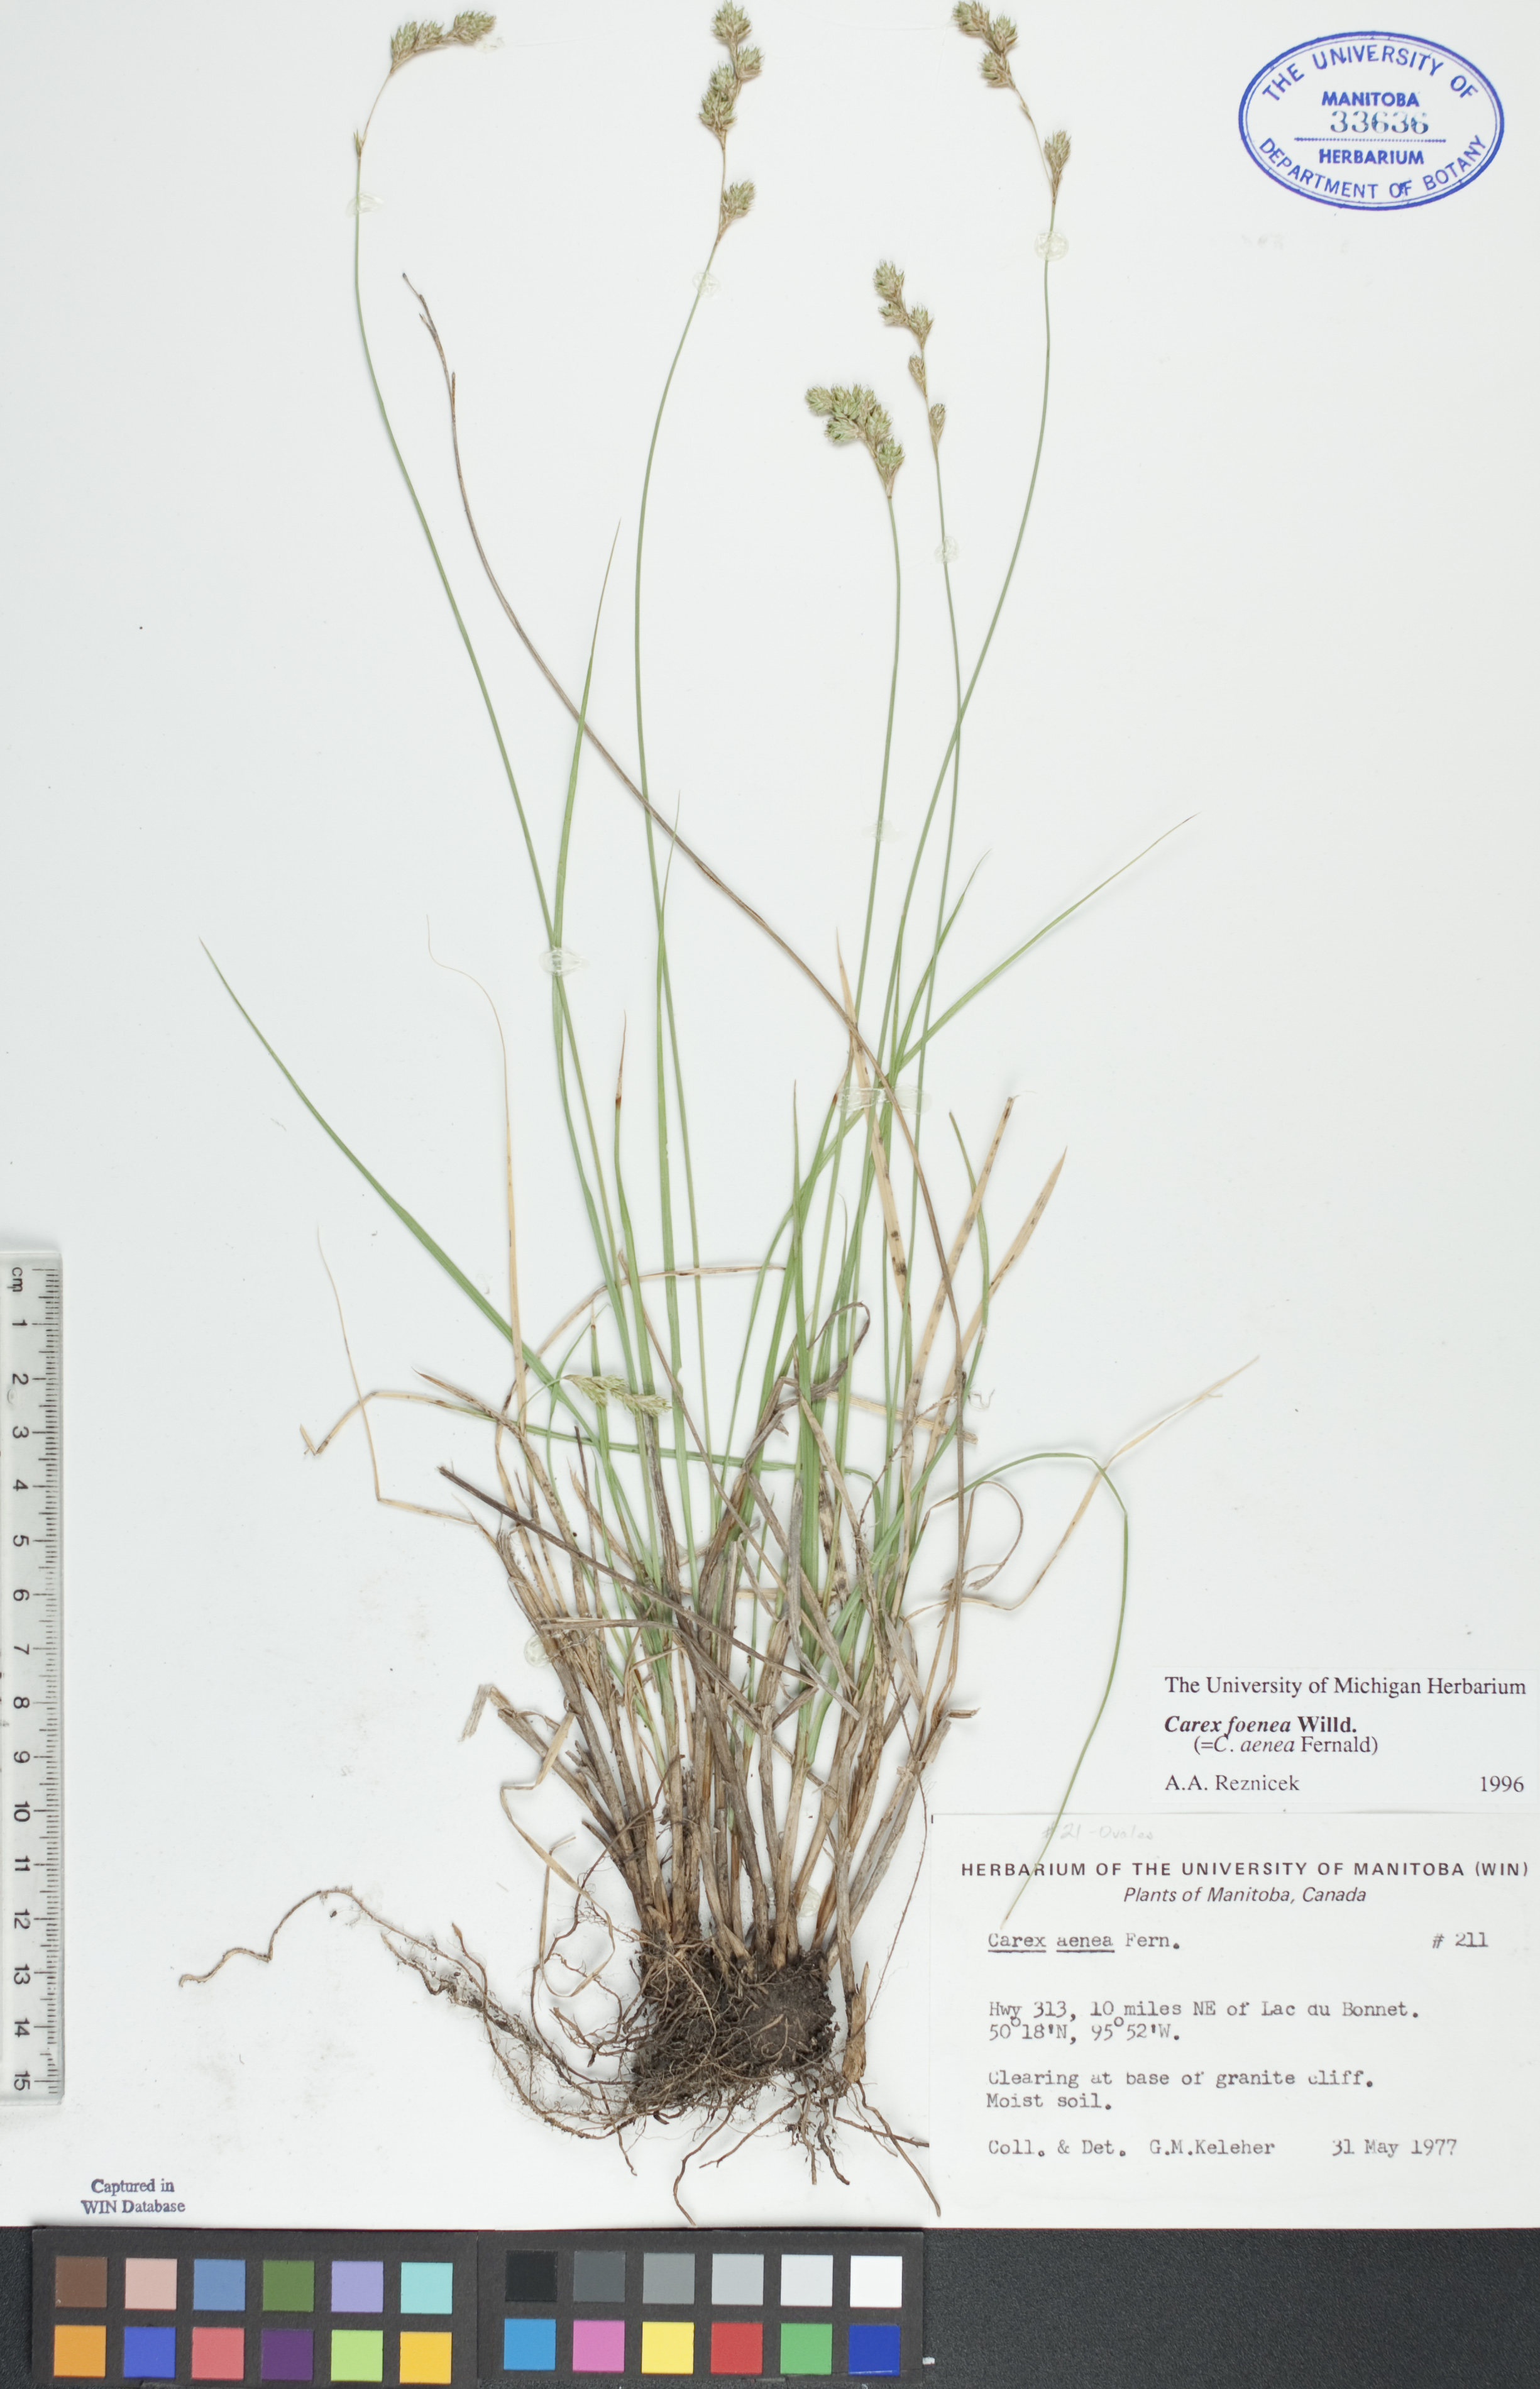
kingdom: Plantae
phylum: Tracheophyta
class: Liliopsida
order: Poales
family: Cyperaceae
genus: Carex
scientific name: Carex foenea
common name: Bronze sedge
